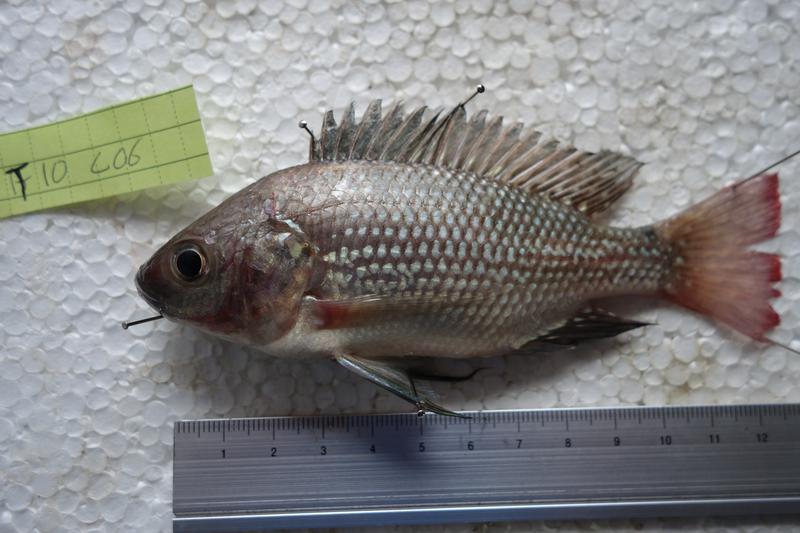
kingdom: Animalia
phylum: Chordata
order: Perciformes
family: Cichlidae
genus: Oreochromis
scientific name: Oreochromis esculentus
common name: Carp
